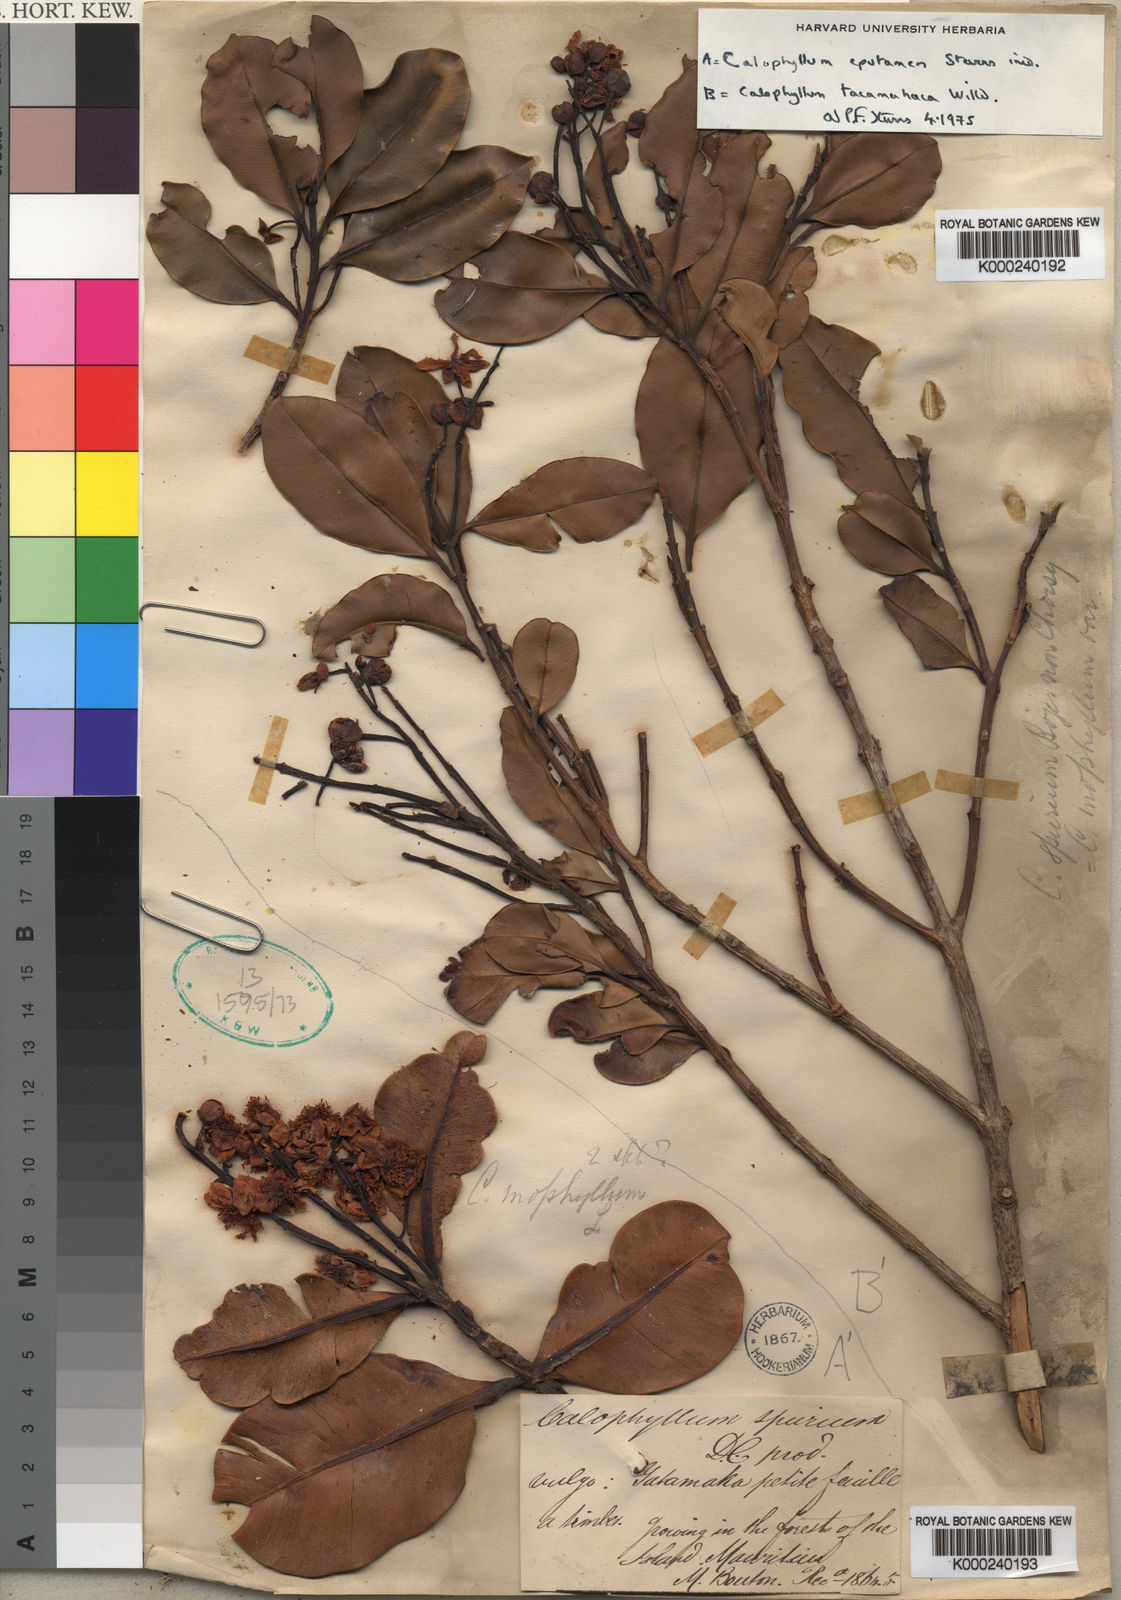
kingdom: Plantae
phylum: Tracheophyta
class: Magnoliopsida
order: Malpighiales
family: Calophyllaceae
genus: Calophyllum
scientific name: Calophyllum parviflorum
